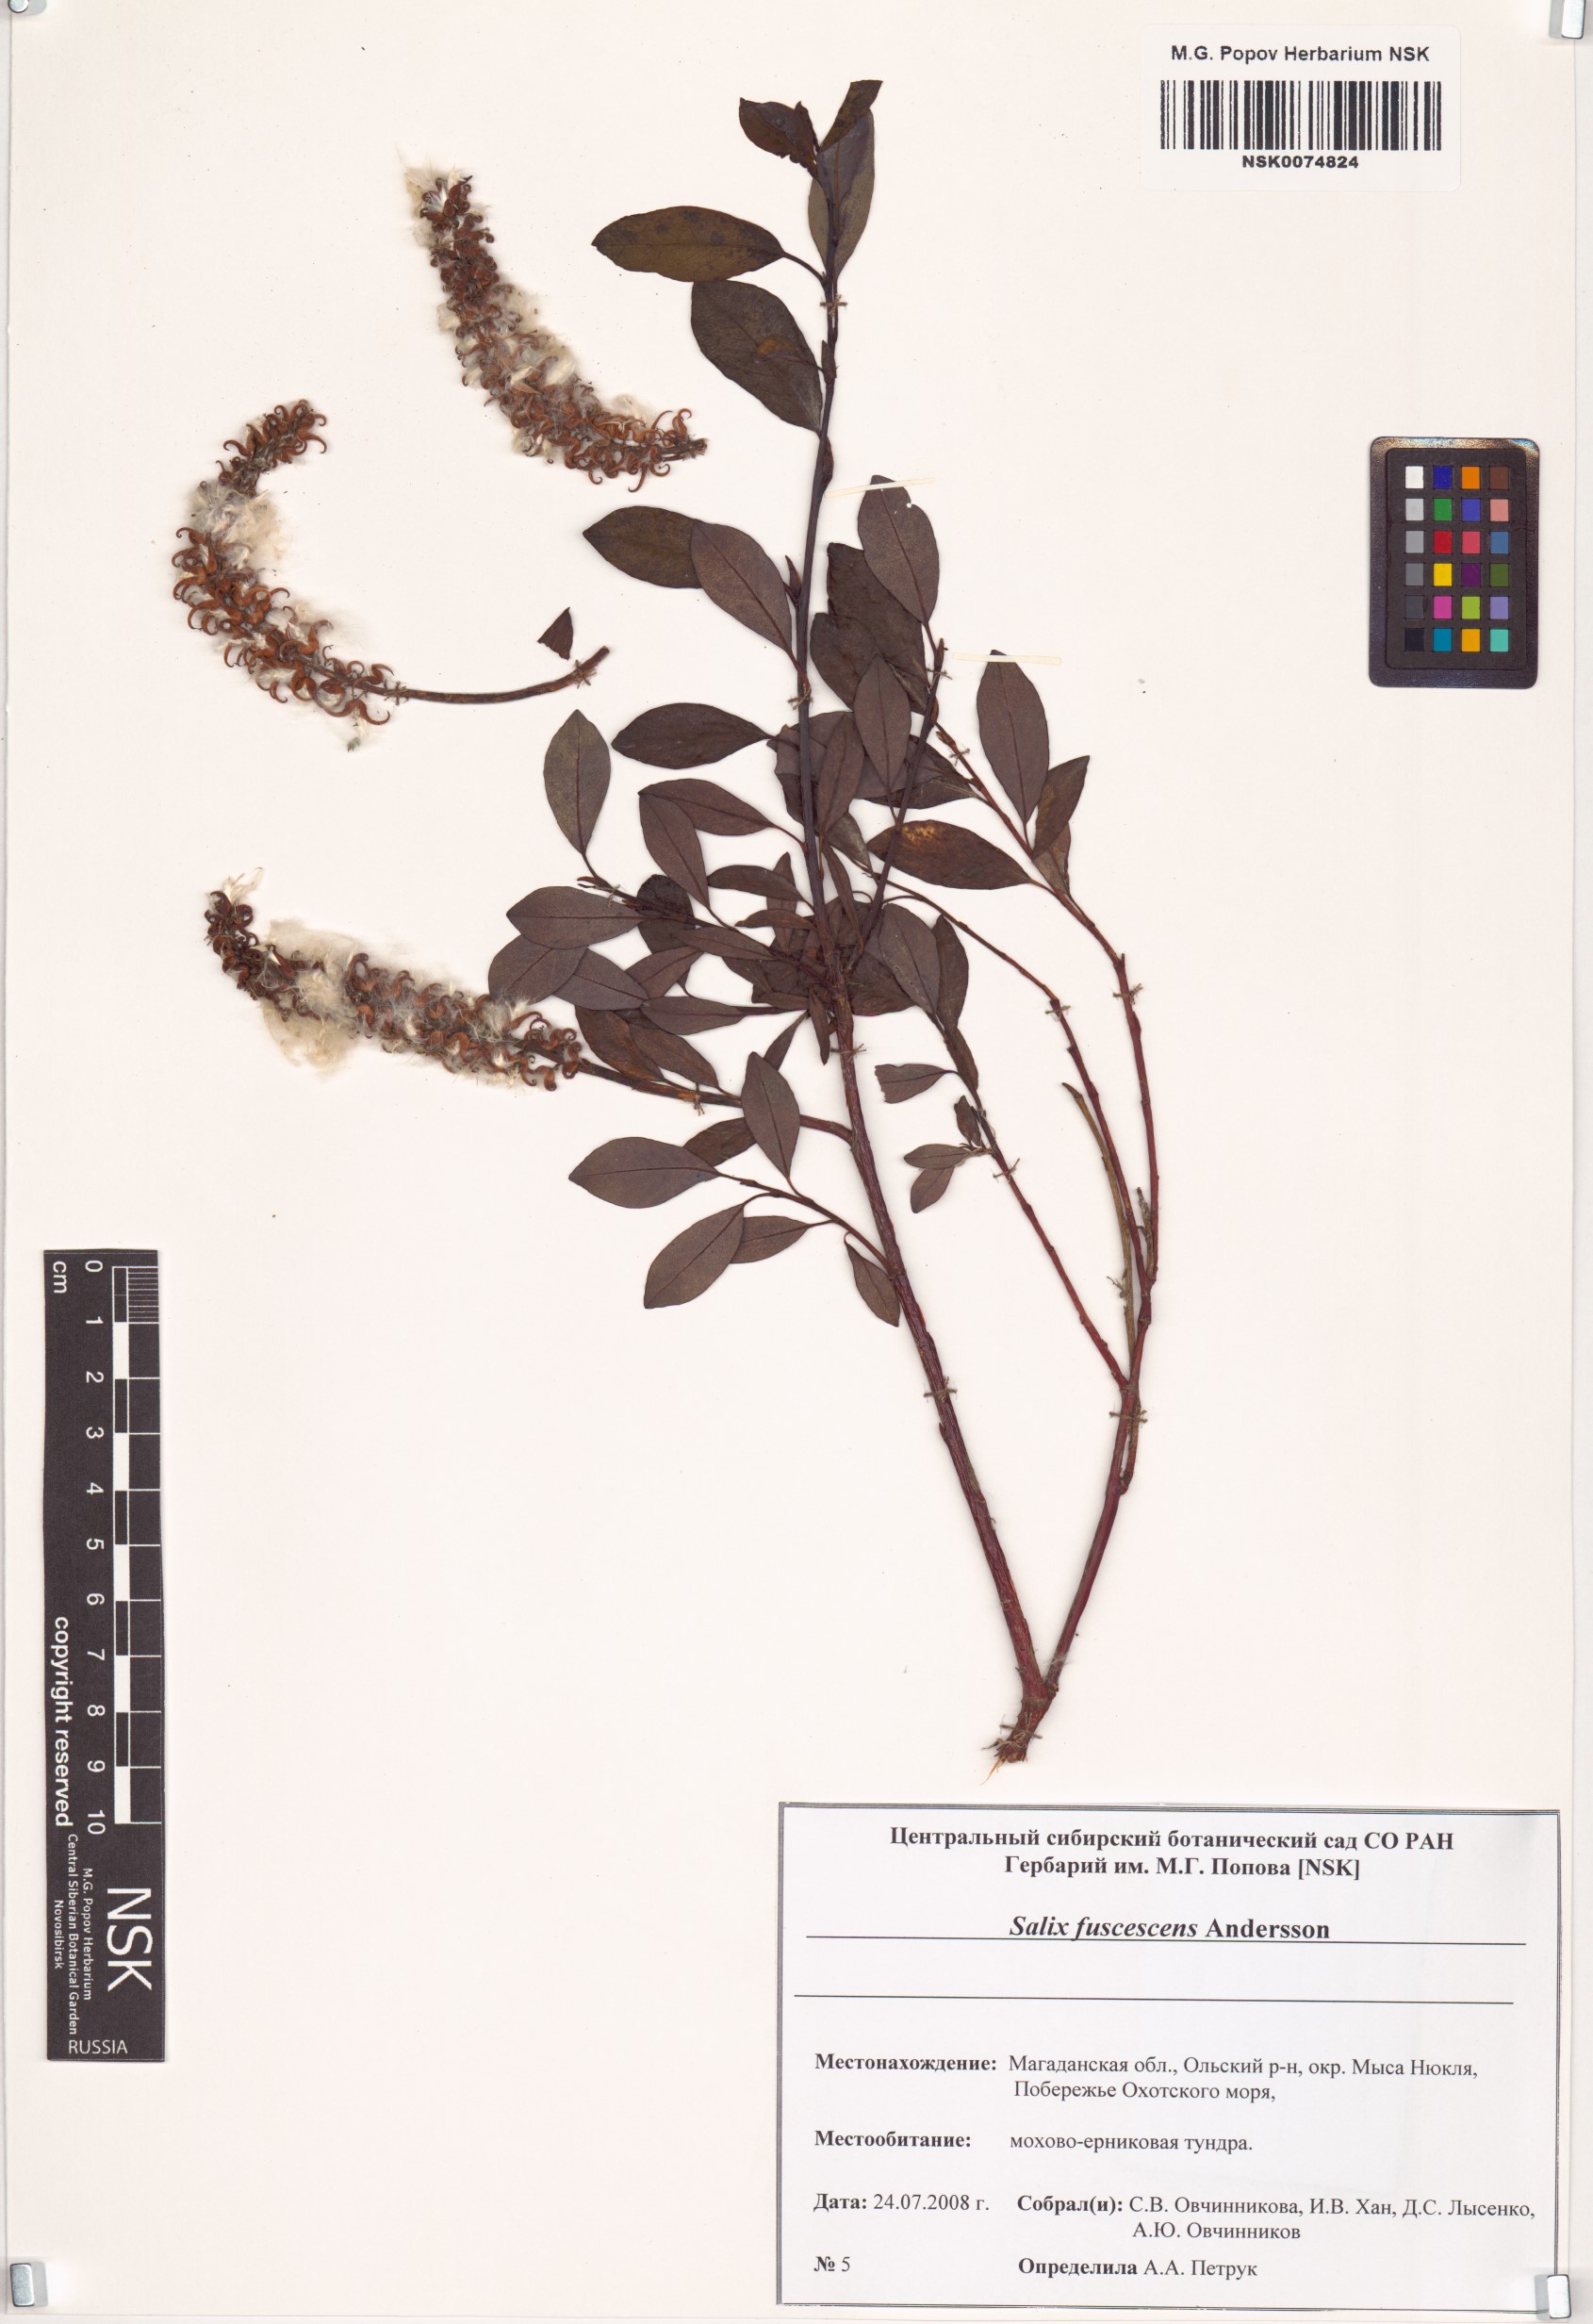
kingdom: Plantae
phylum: Tracheophyta
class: Magnoliopsida
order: Malpighiales
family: Salicaceae
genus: Salix
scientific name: Salix fuscescens
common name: Brownish willow
